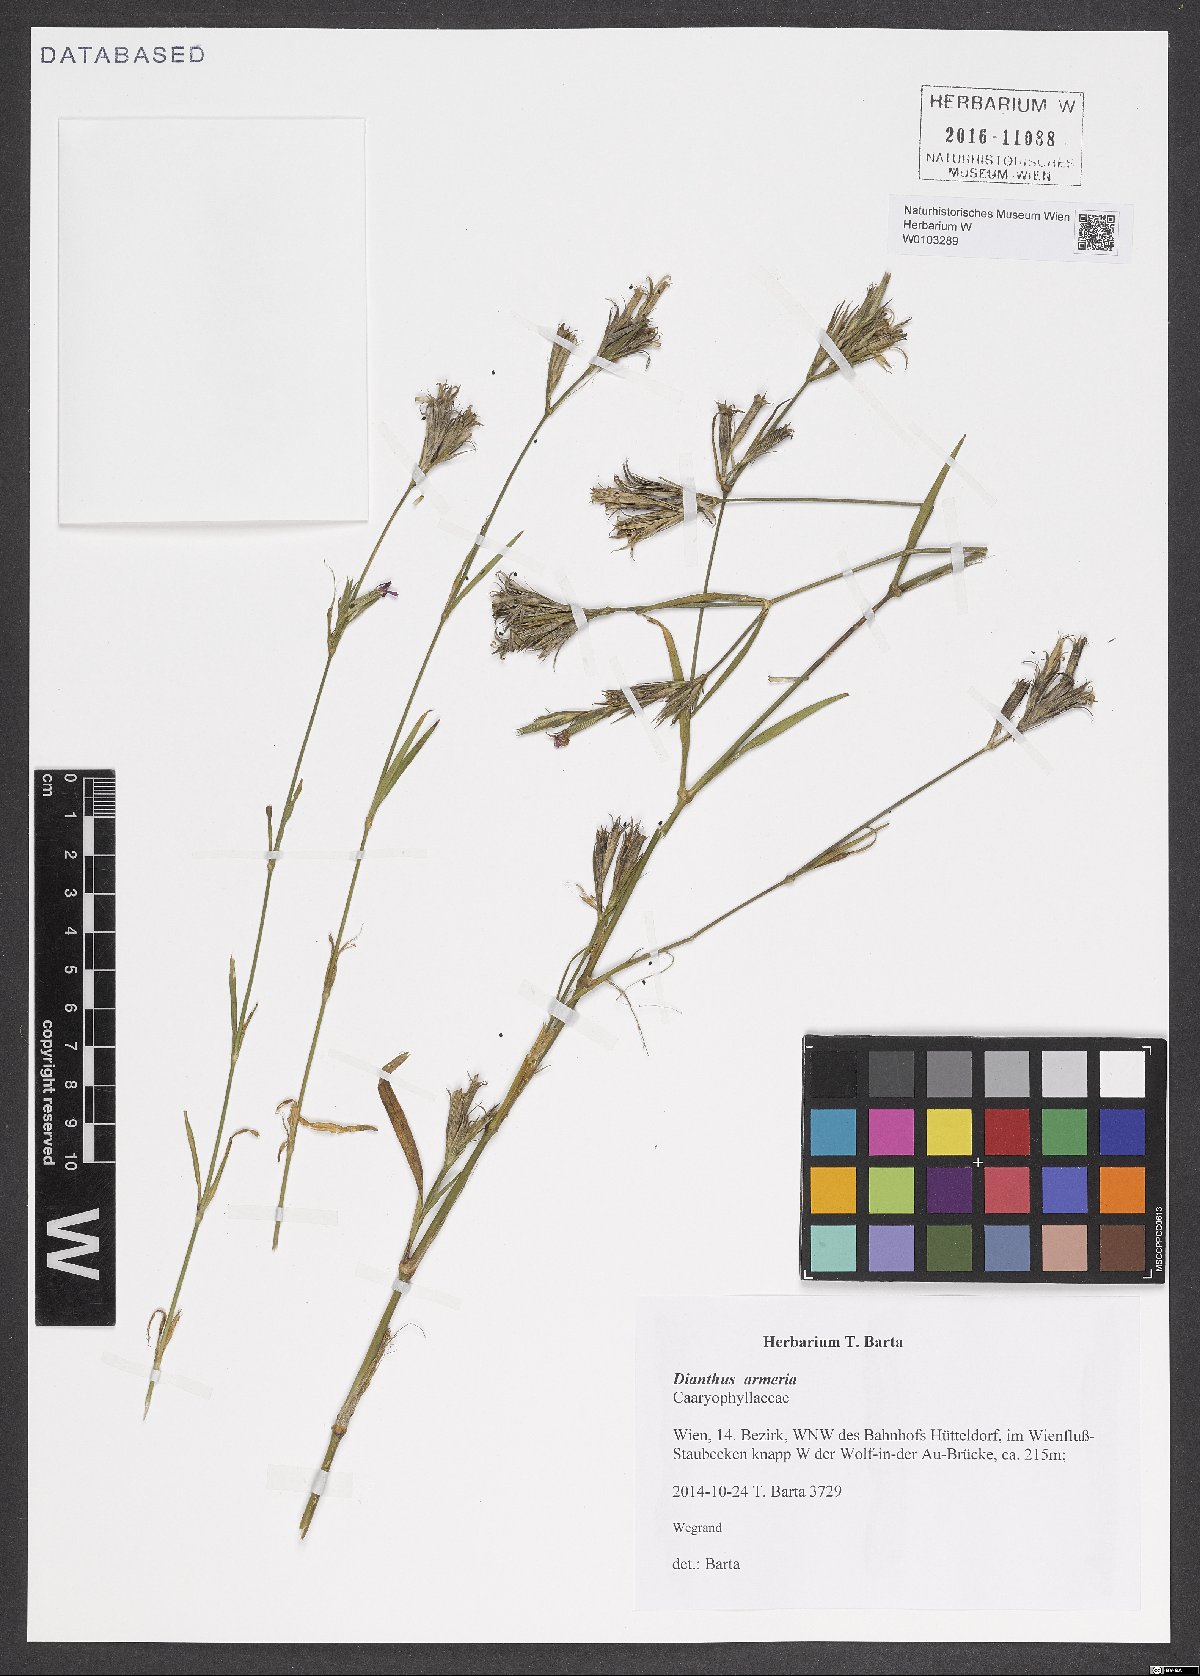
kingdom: Plantae
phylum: Tracheophyta
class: Magnoliopsida
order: Caryophyllales
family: Caryophyllaceae
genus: Dianthus
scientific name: Dianthus armeria
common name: Deptford pink
